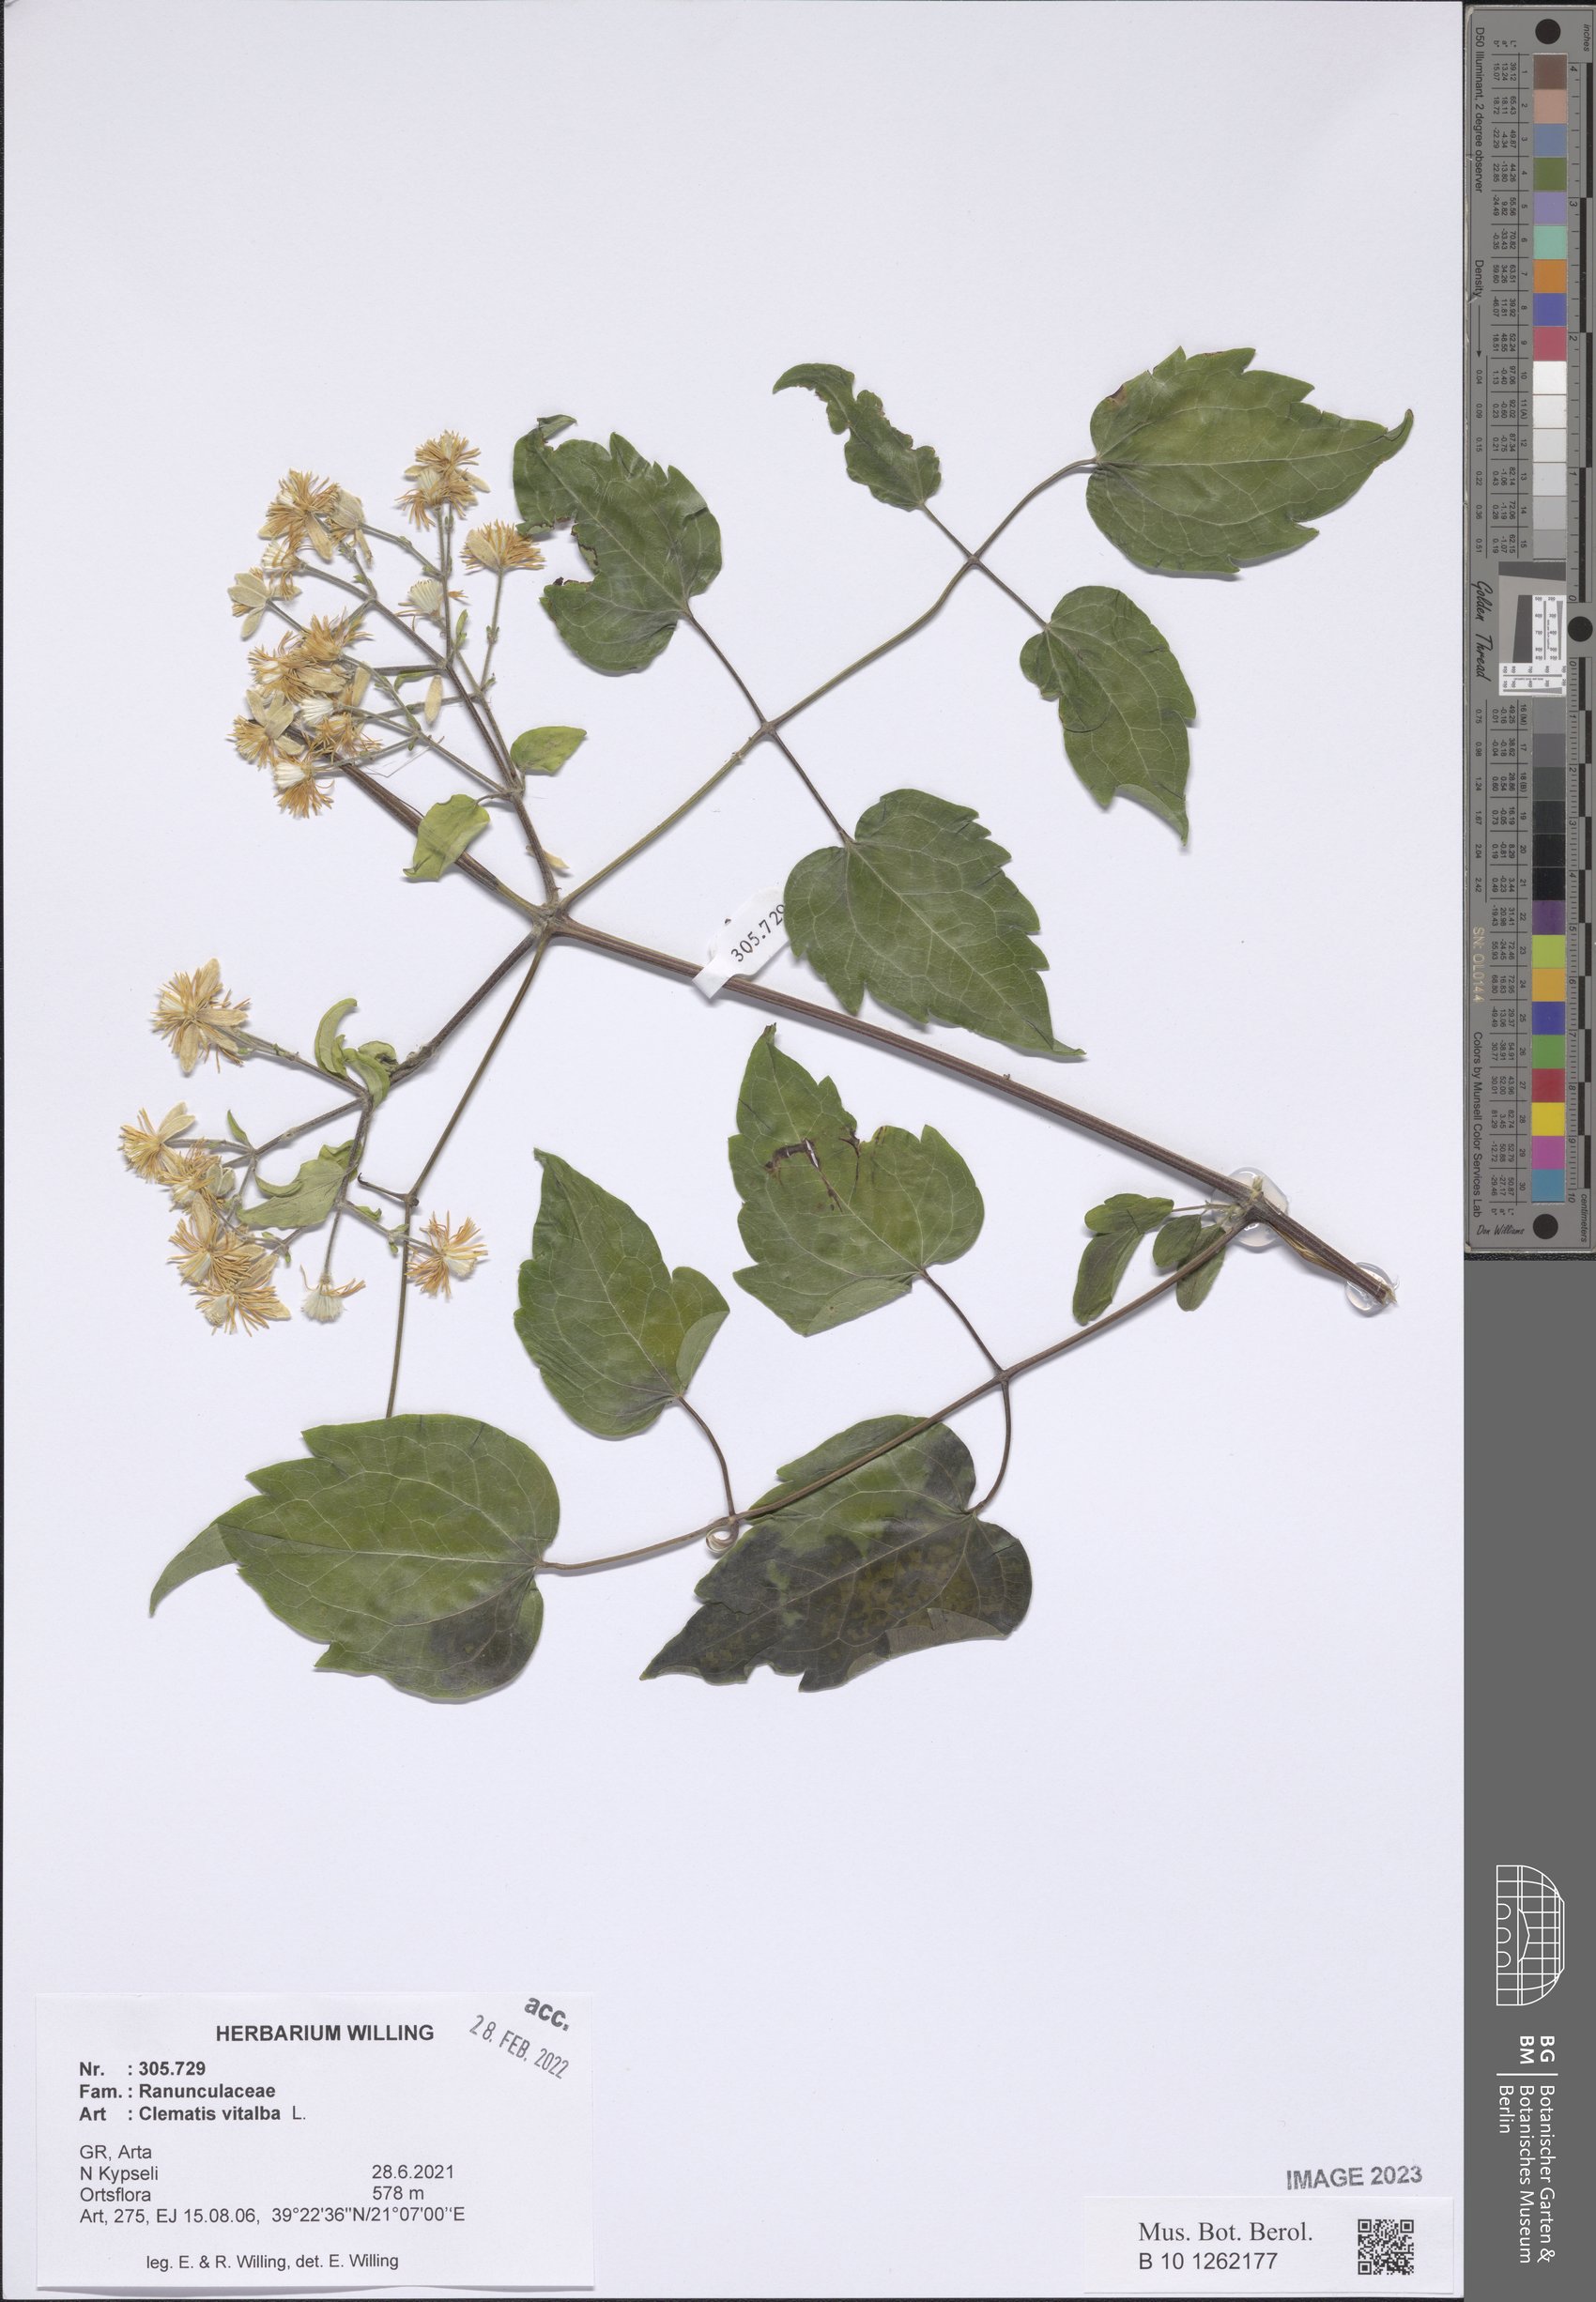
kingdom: Plantae
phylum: Tracheophyta
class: Magnoliopsida
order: Ranunculales
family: Ranunculaceae
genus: Clematis
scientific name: Clematis vitalba
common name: Evergreen clematis
